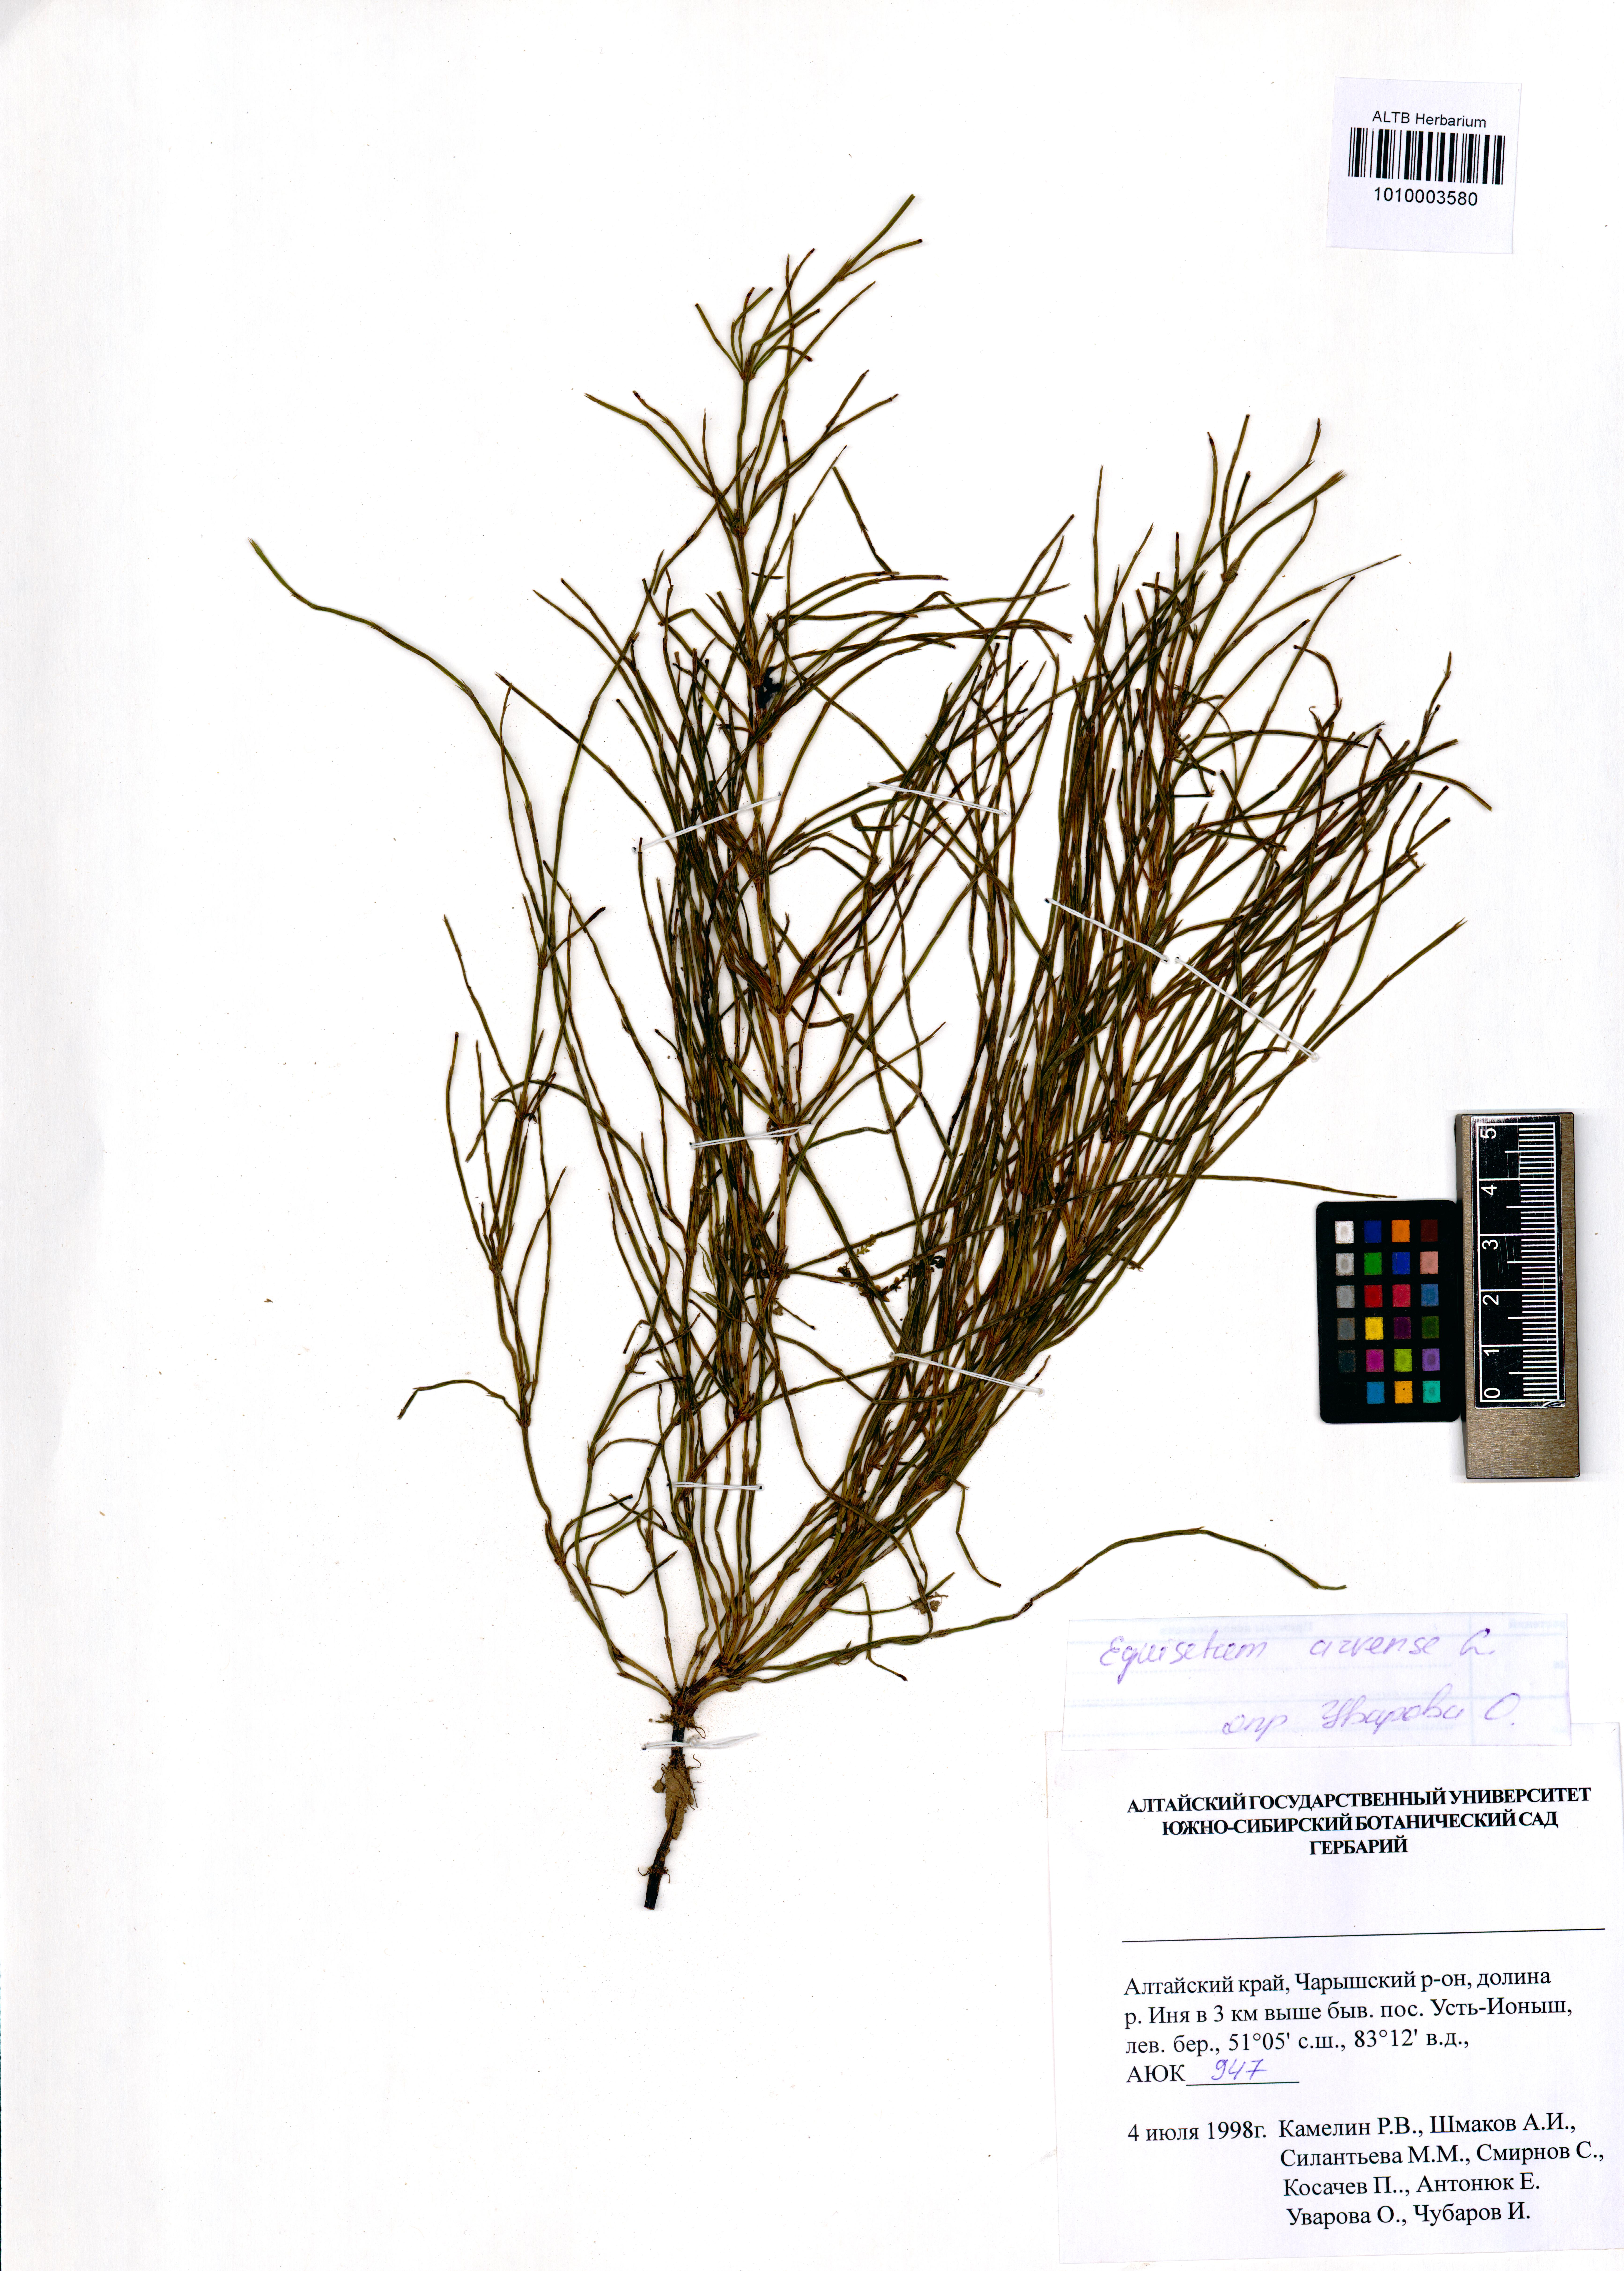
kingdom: Plantae
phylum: Tracheophyta
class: Polypodiopsida
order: Equisetales
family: Equisetaceae
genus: Equisetum
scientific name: Equisetum arvense
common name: Field horsetail
